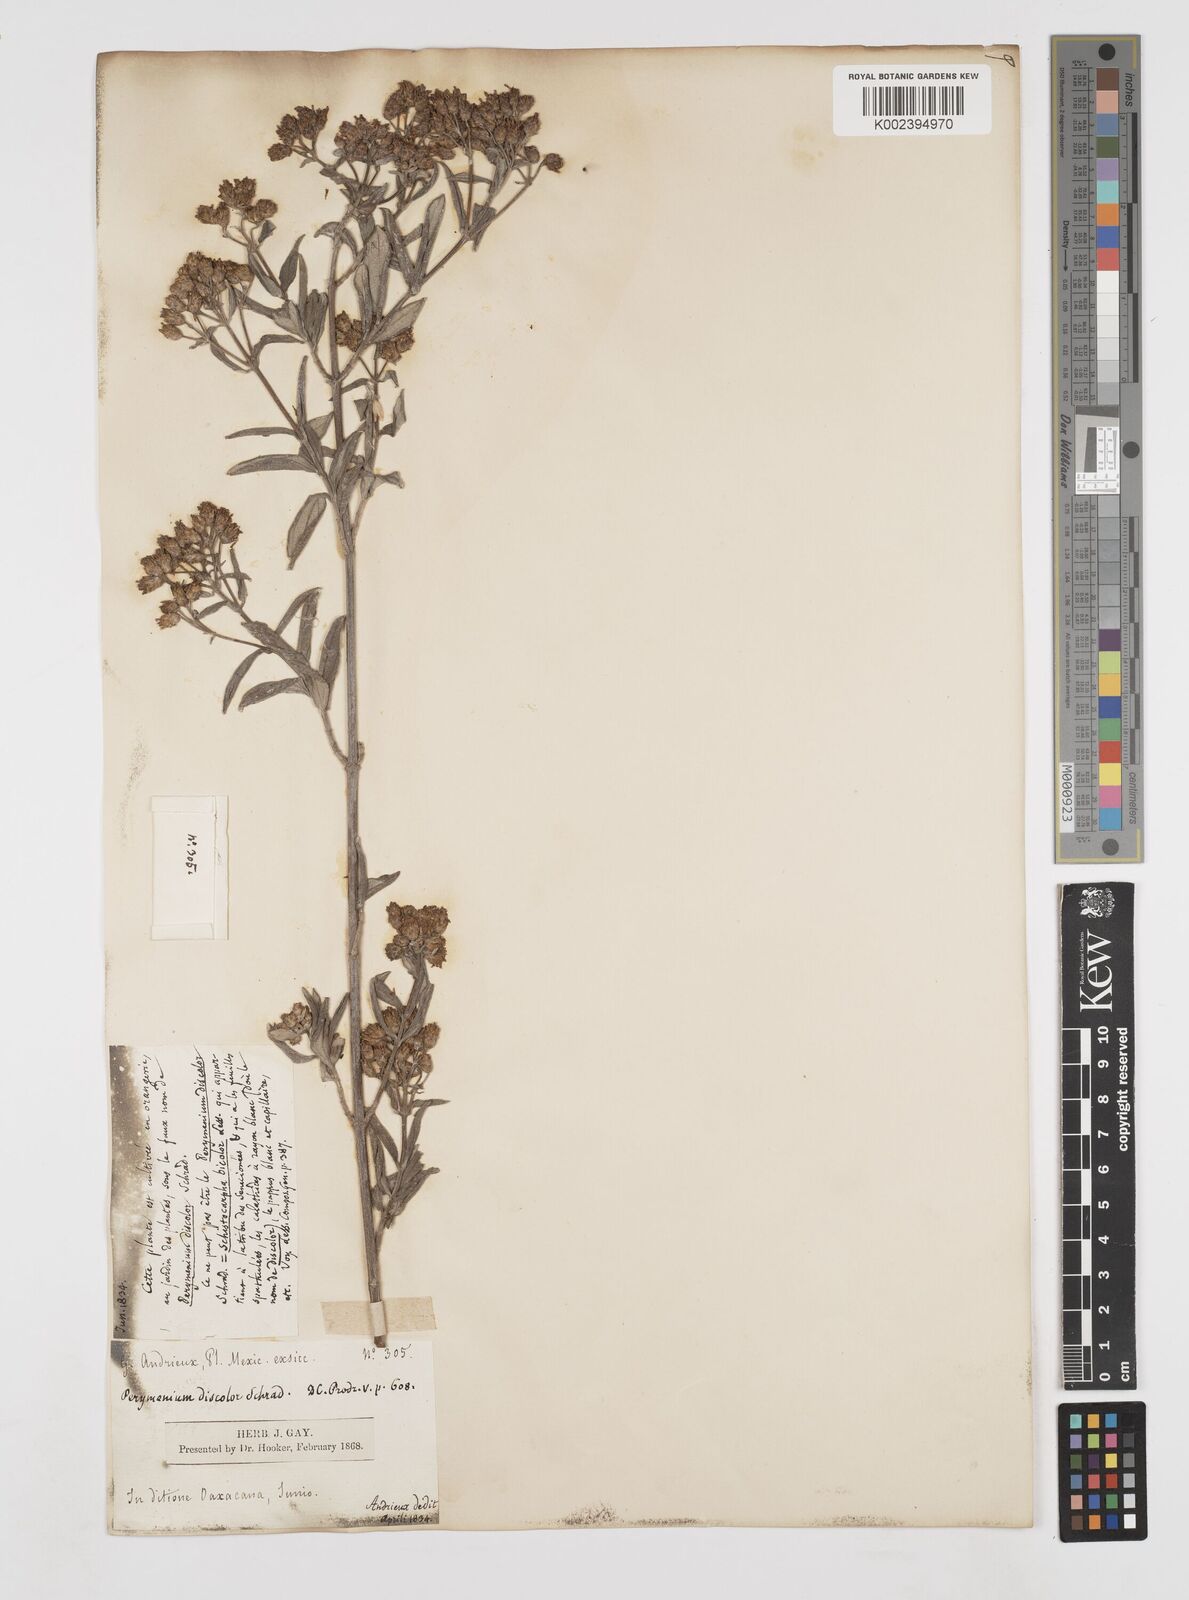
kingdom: Plantae
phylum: Tracheophyta
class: Magnoliopsida
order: Asterales
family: Asteraceae
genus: Perymenium
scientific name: Perymenium discolor
